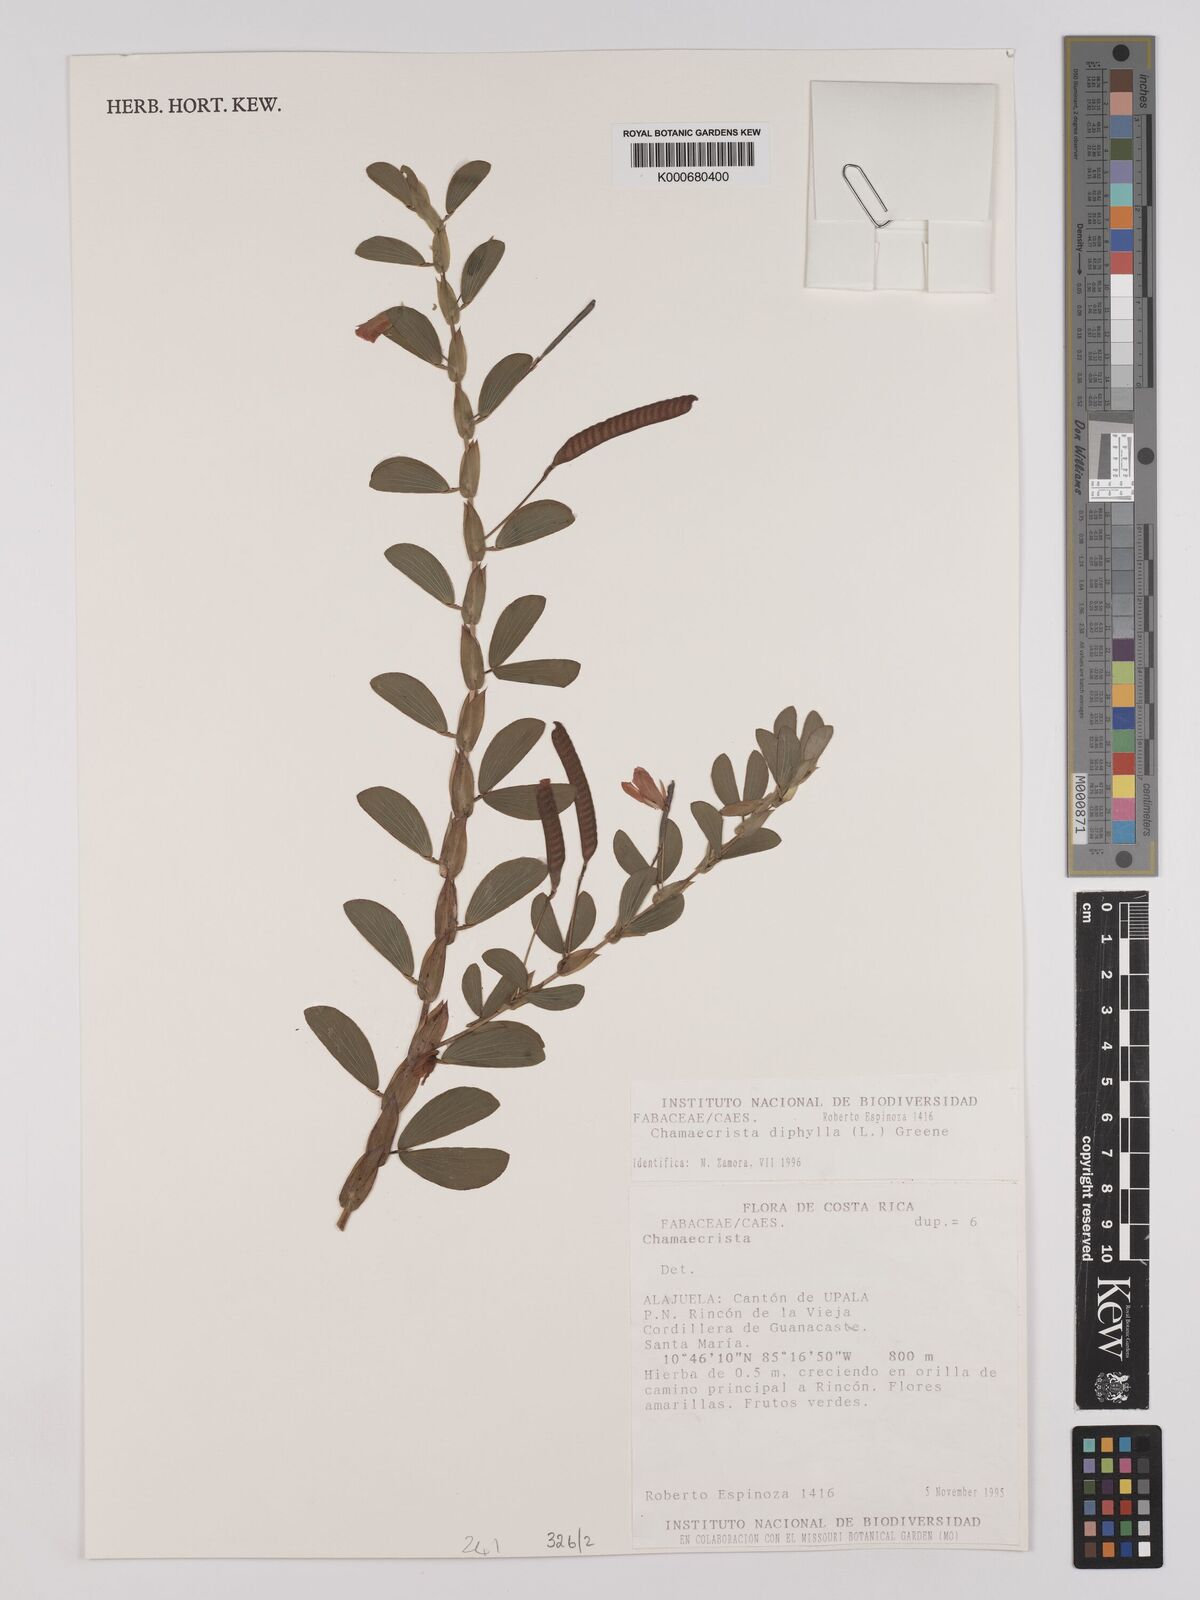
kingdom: Plantae
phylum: Tracheophyta
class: Magnoliopsida
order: Fabales
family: Fabaceae
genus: Chamaecrista
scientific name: Chamaecrista diphylla
